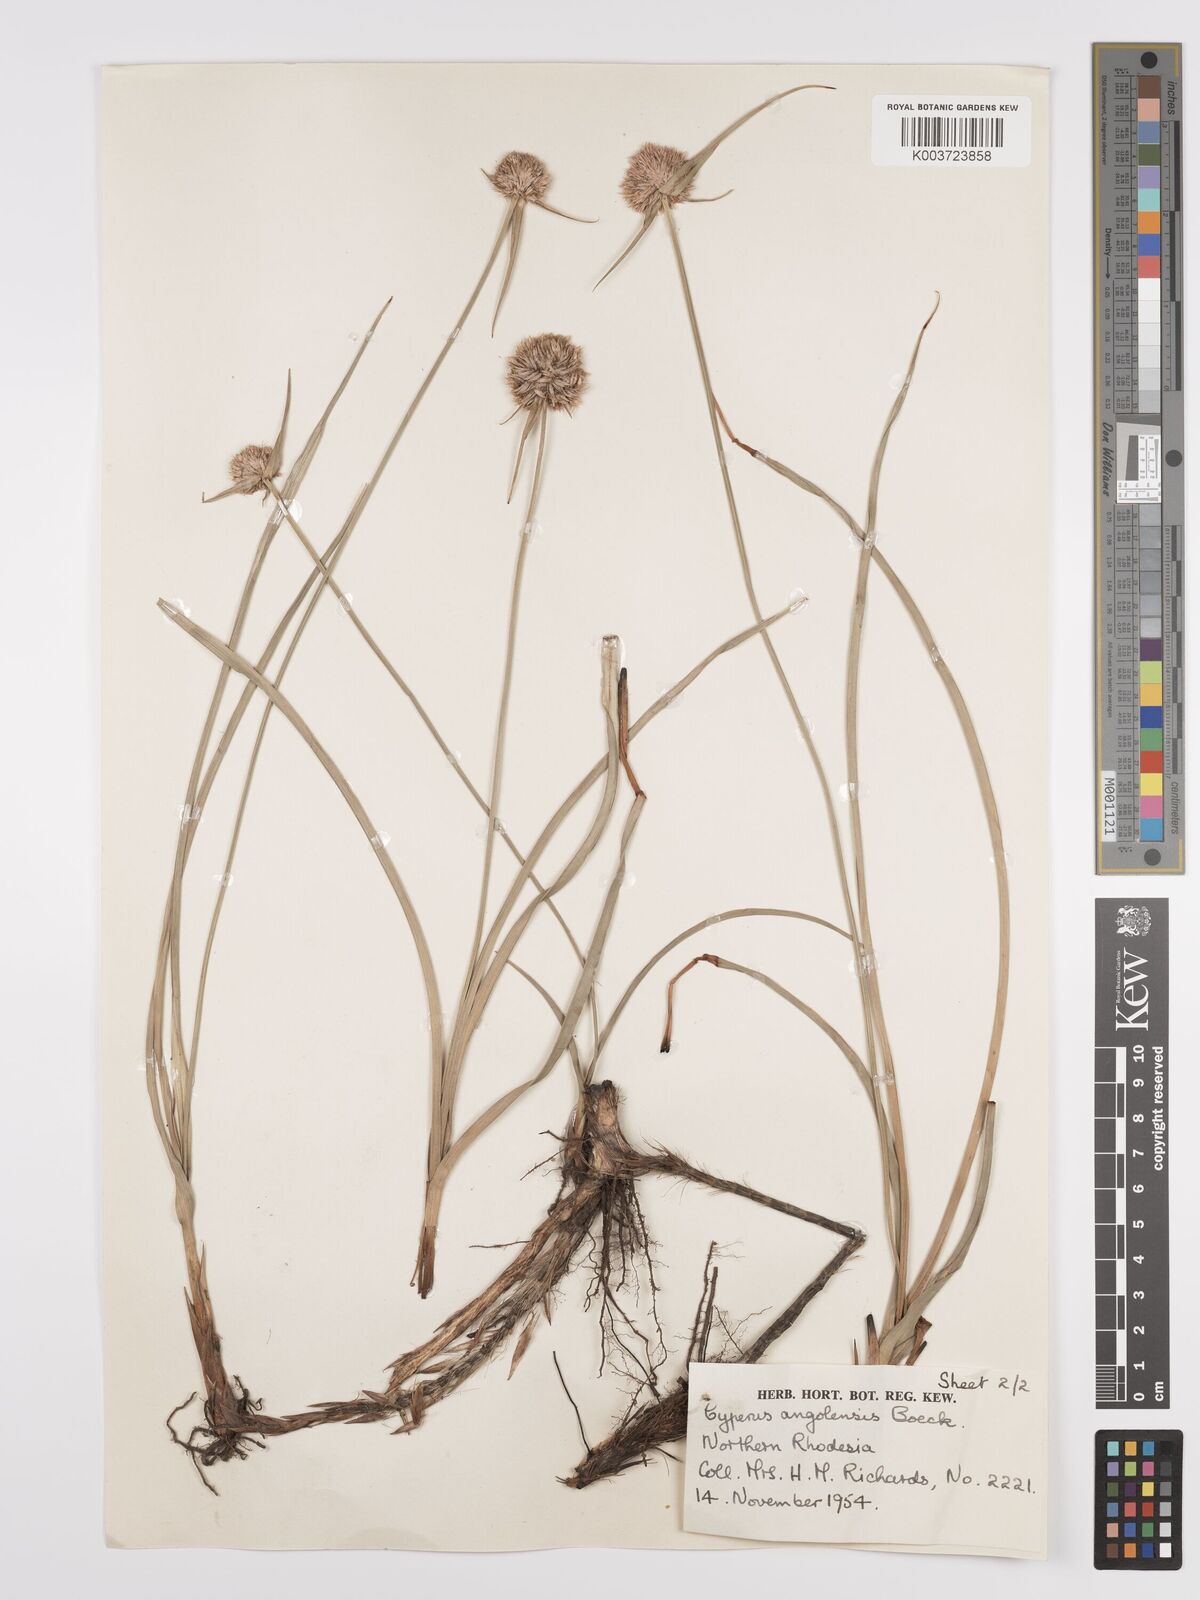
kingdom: Plantae
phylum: Tracheophyta
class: Liliopsida
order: Poales
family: Cyperaceae
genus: Cyperus
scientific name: Cyperus angolensis
